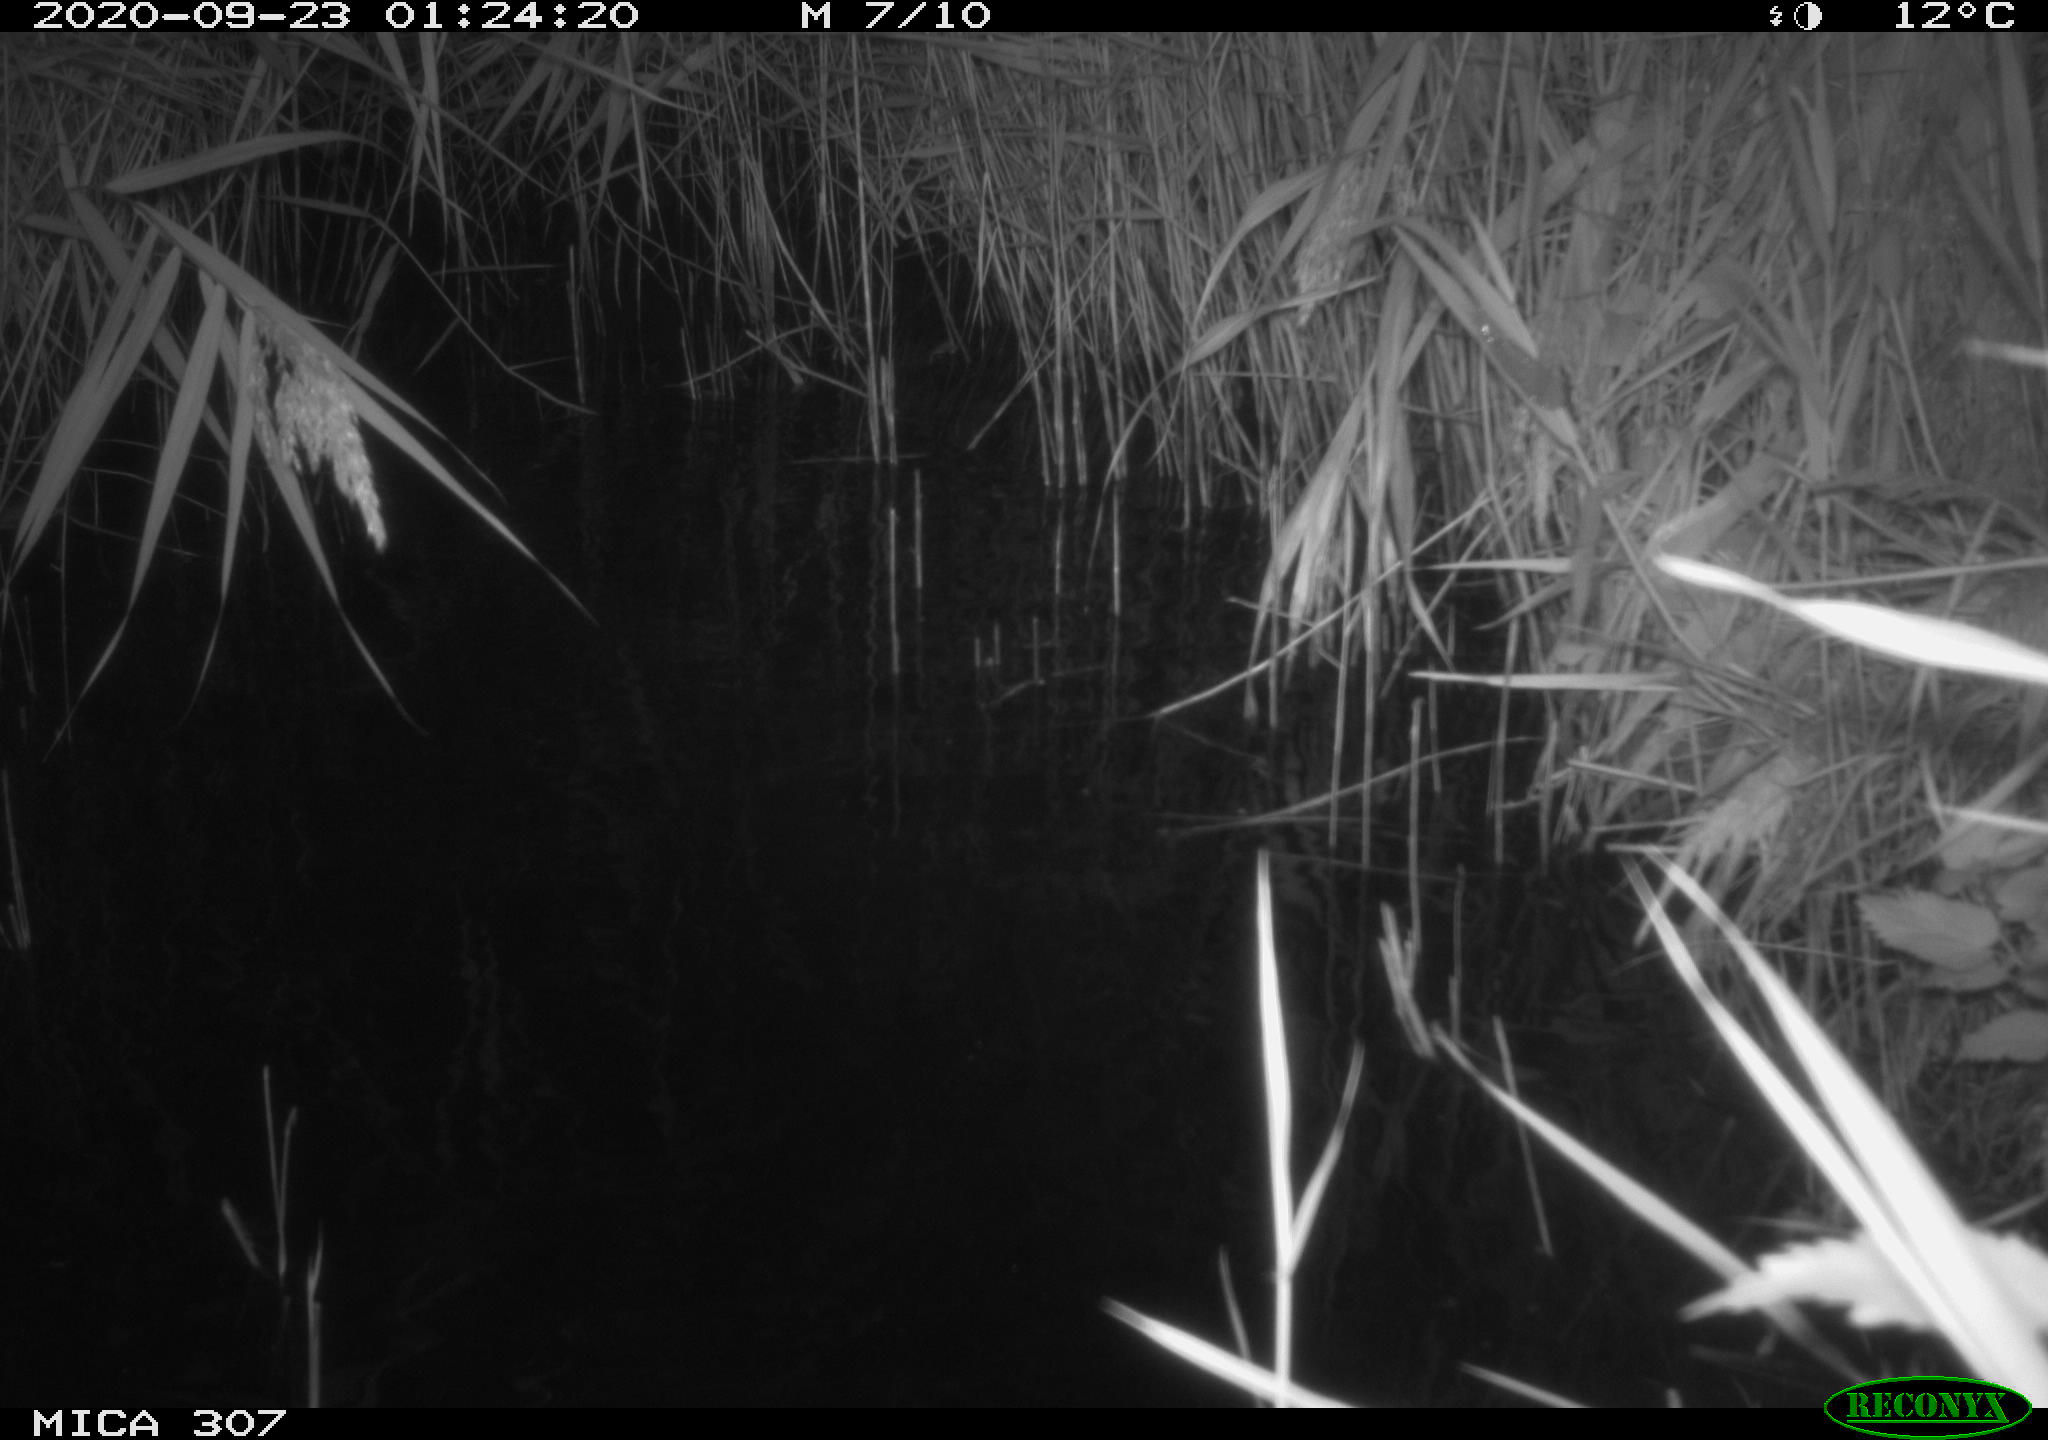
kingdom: Animalia
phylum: Chordata
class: Mammalia
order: Rodentia
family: Cricetidae
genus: Ondatra
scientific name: Ondatra zibethicus
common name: Muskrat
